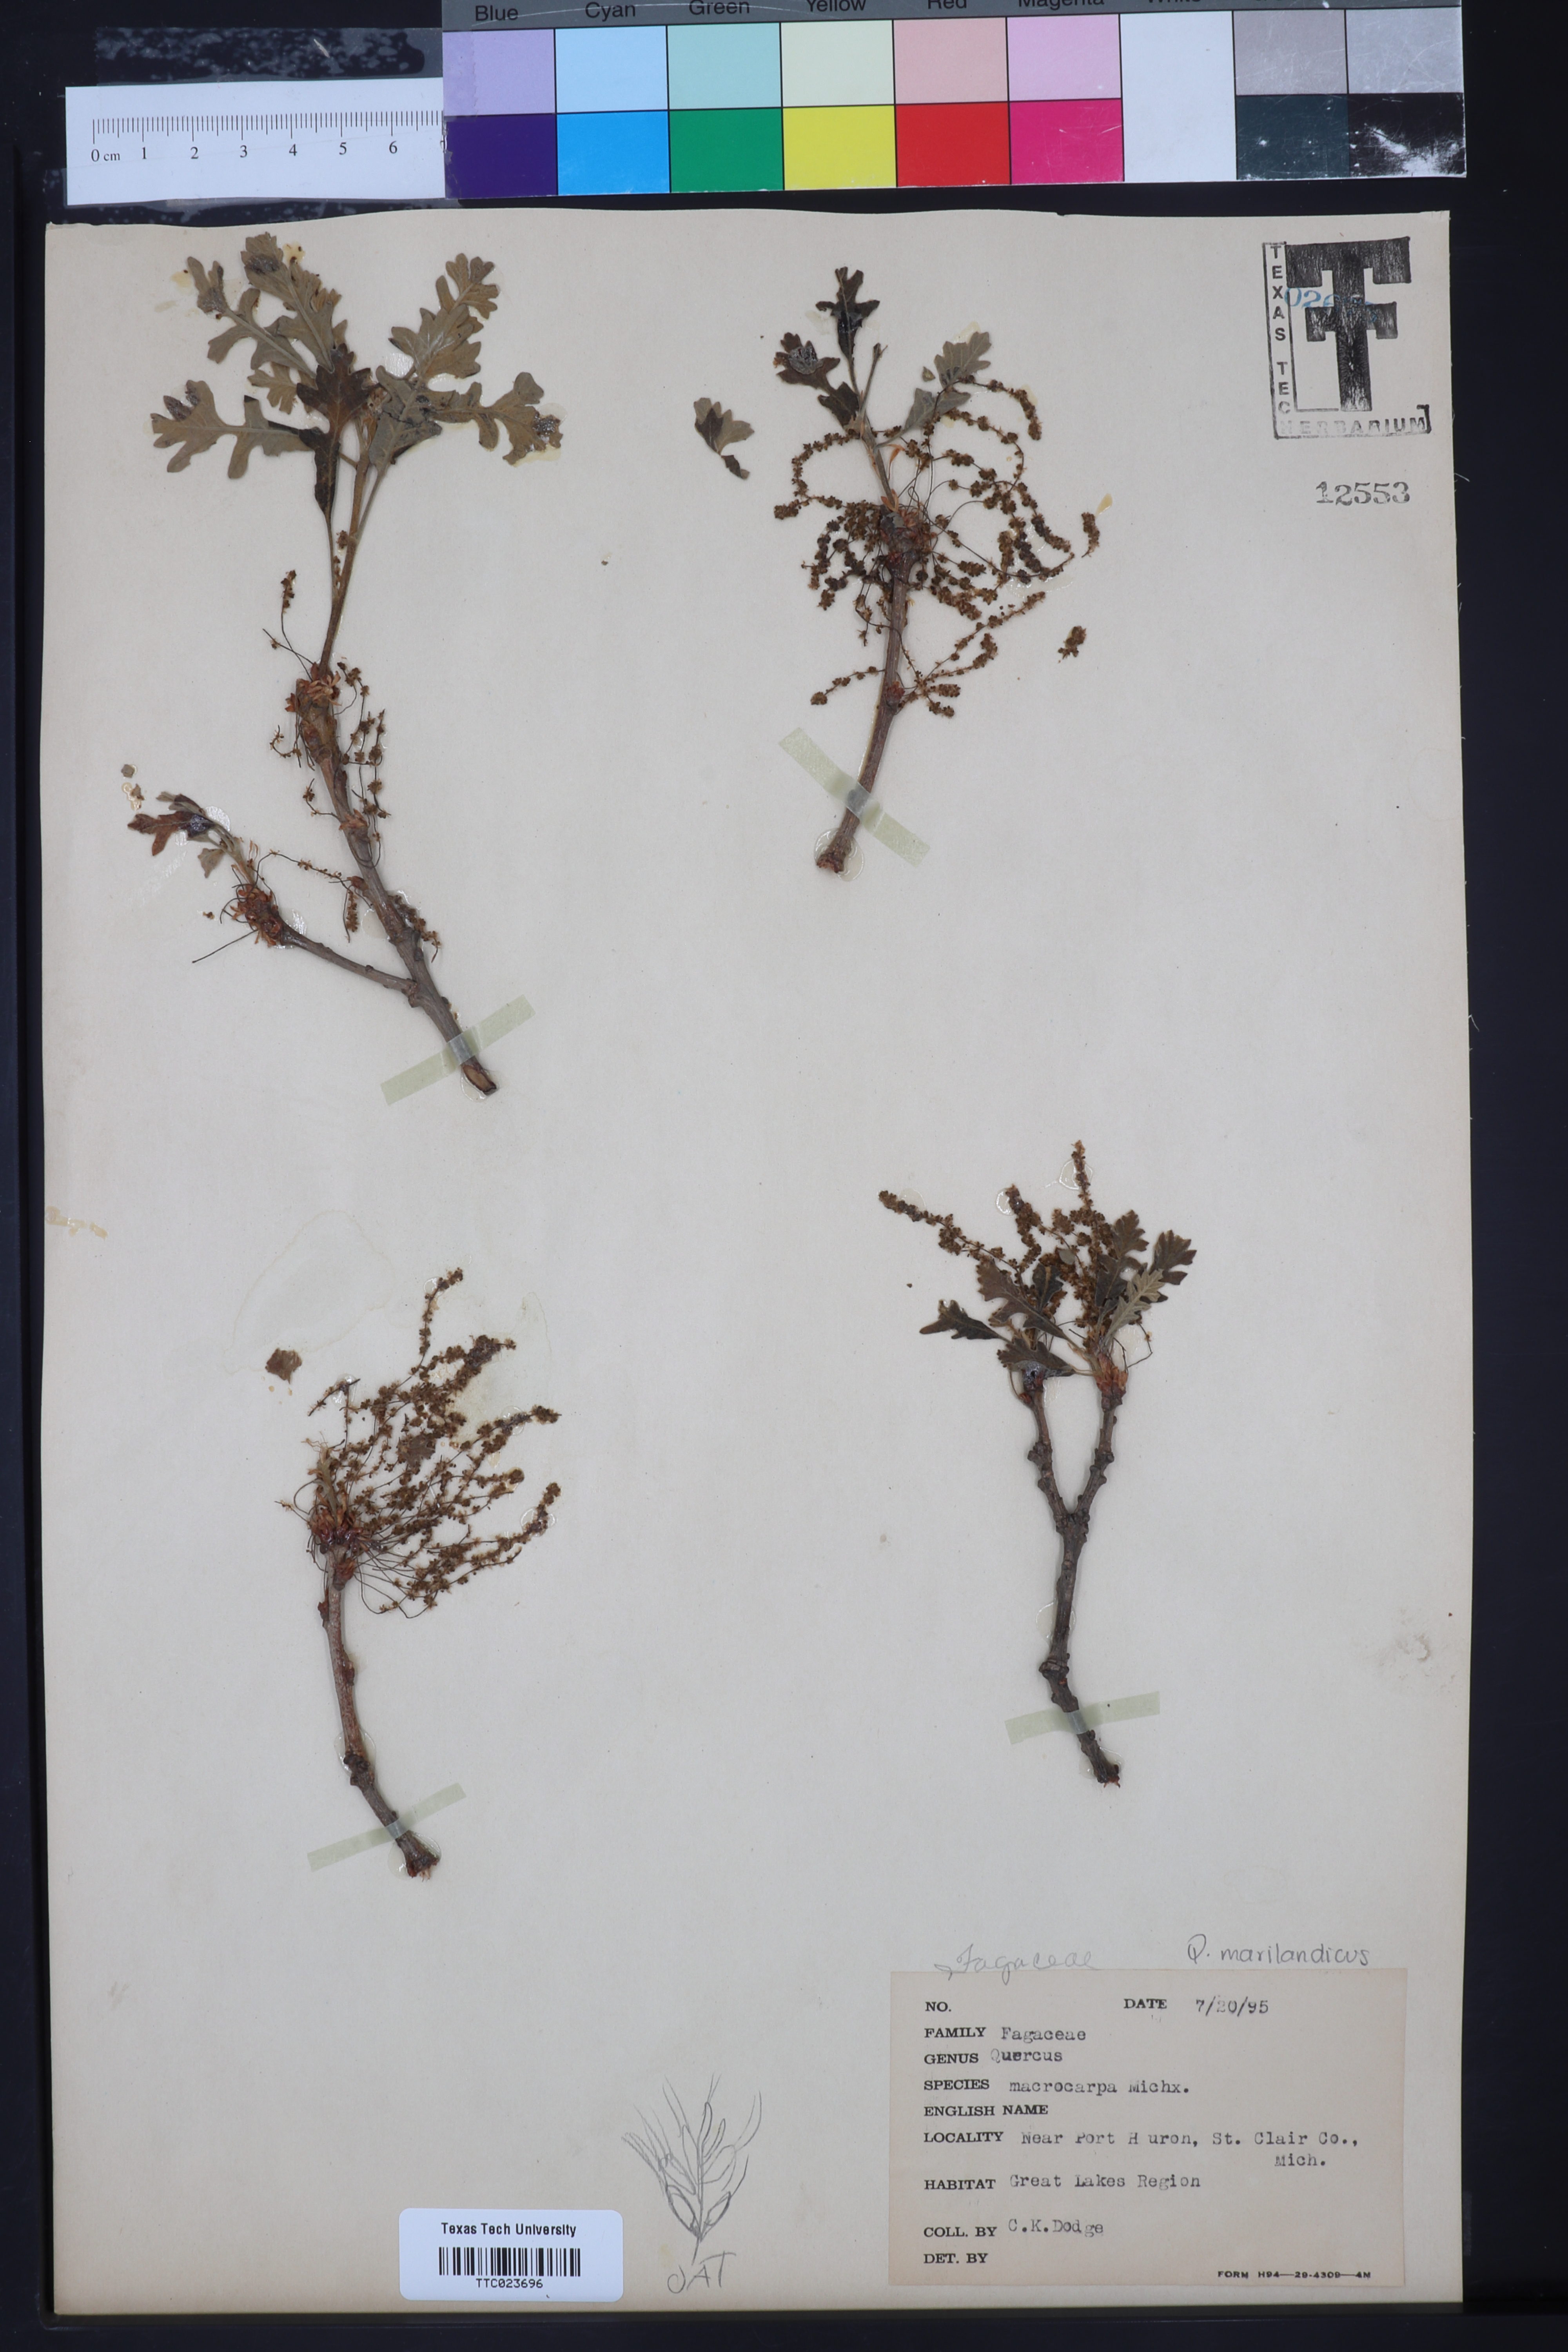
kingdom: Plantae
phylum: Tracheophyta
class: Magnoliopsida
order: Fagales
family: Fagaceae
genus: Quercus
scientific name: Quercus macrocarpa
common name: Bur oak
